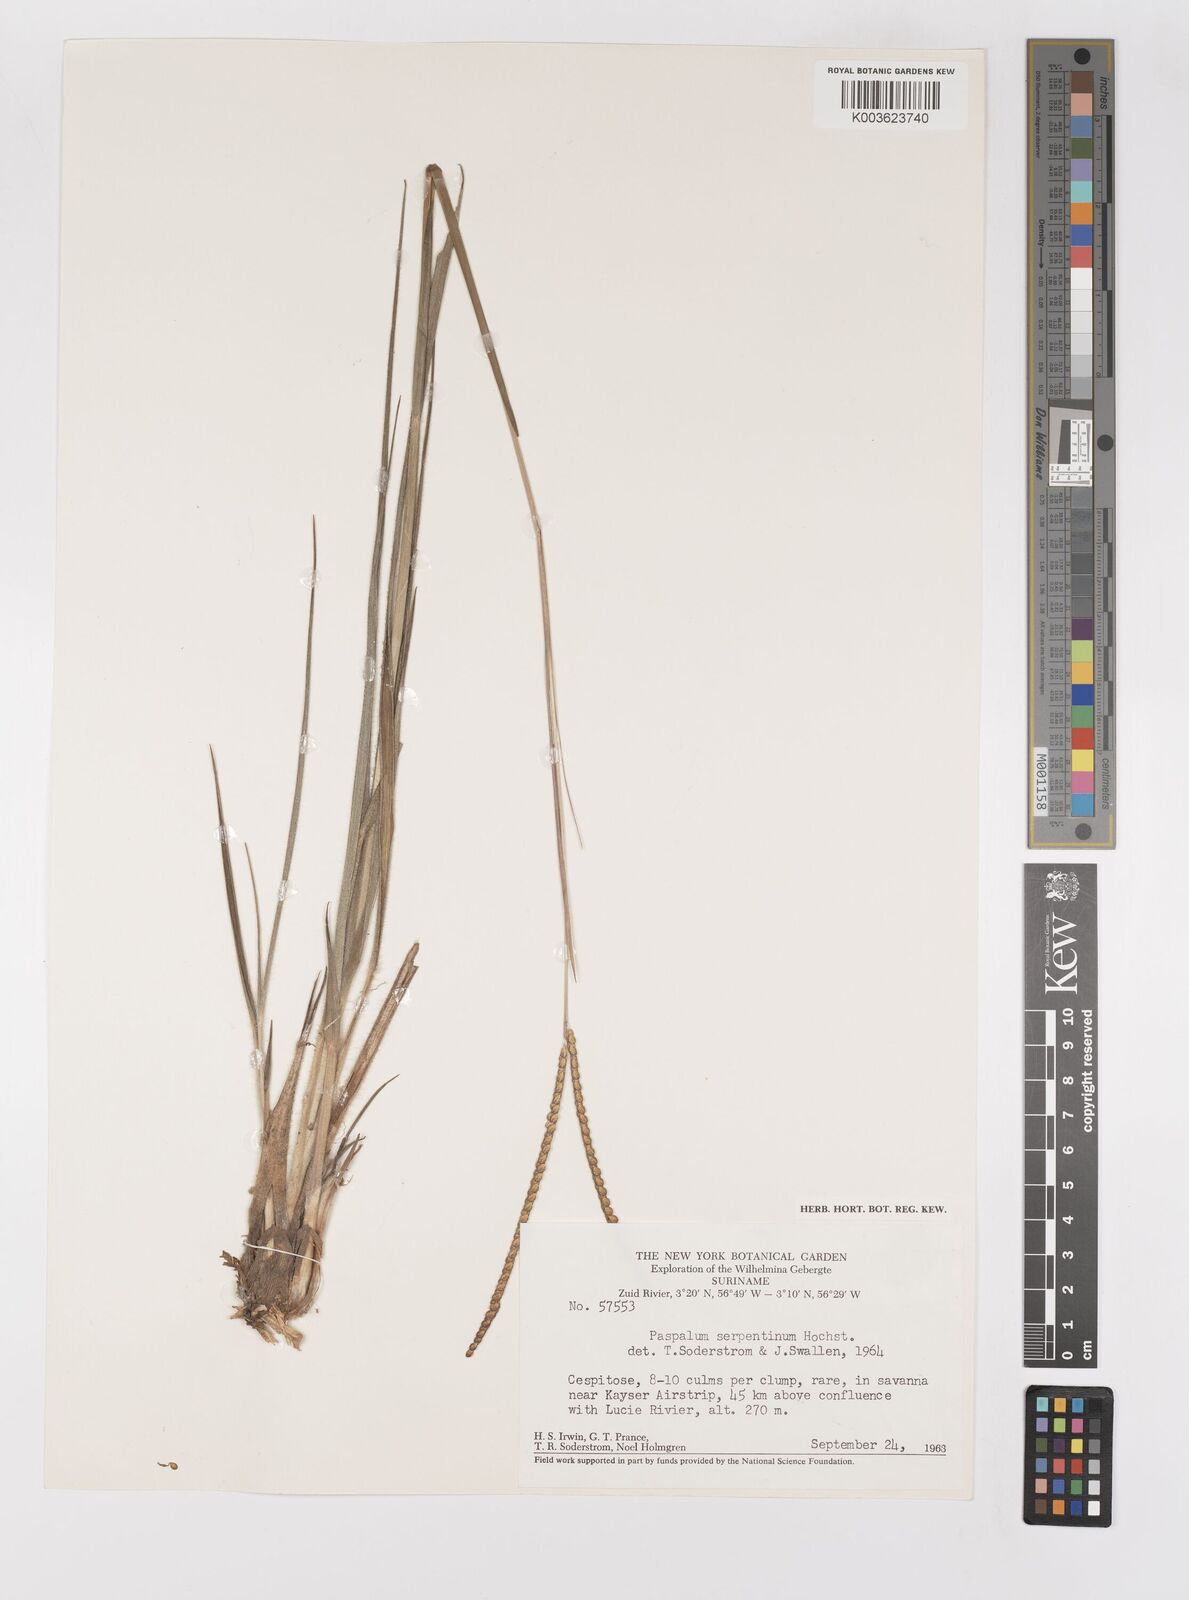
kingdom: Plantae
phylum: Tracheophyta
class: Liliopsida
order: Poales
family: Poaceae
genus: Paspalum
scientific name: Paspalum serpentinum
